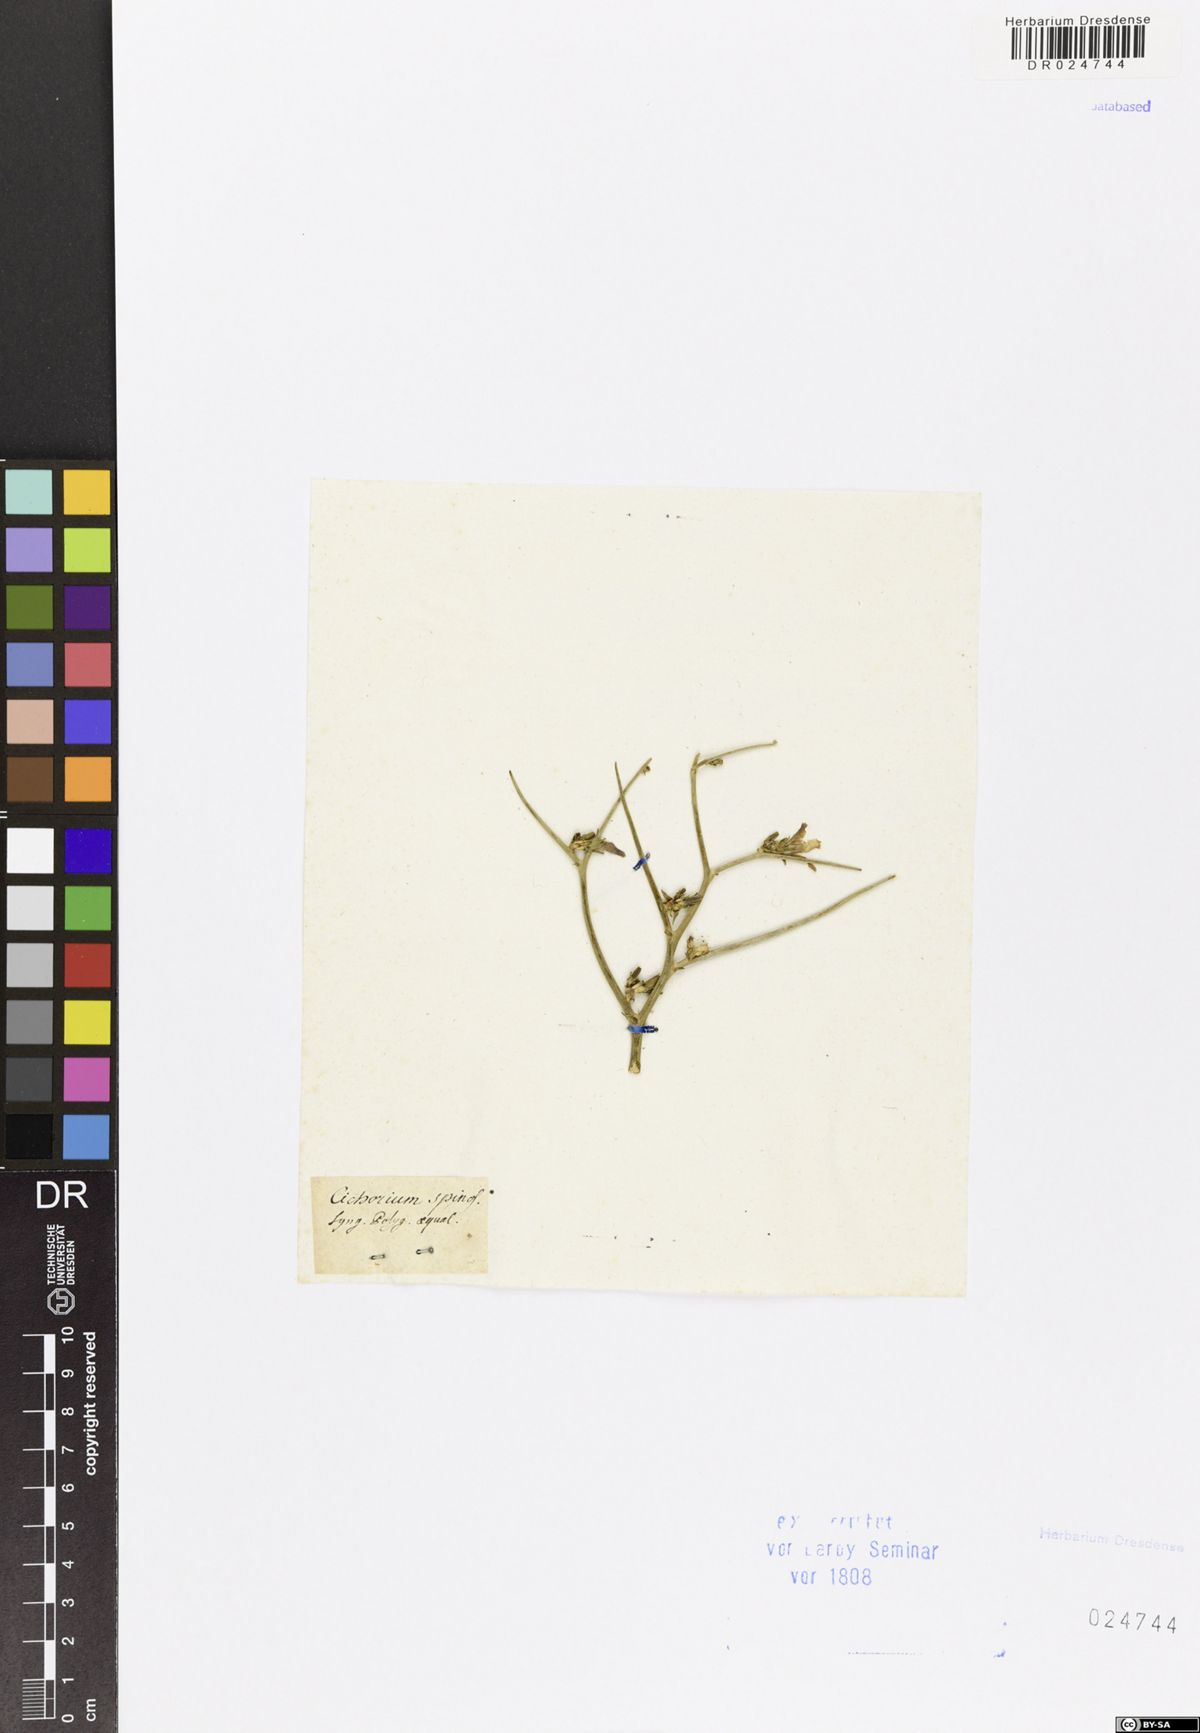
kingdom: Plantae
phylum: Tracheophyta
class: Magnoliopsida
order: Asterales
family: Asteraceae
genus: Cichorium
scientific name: Cichorium spinosum
